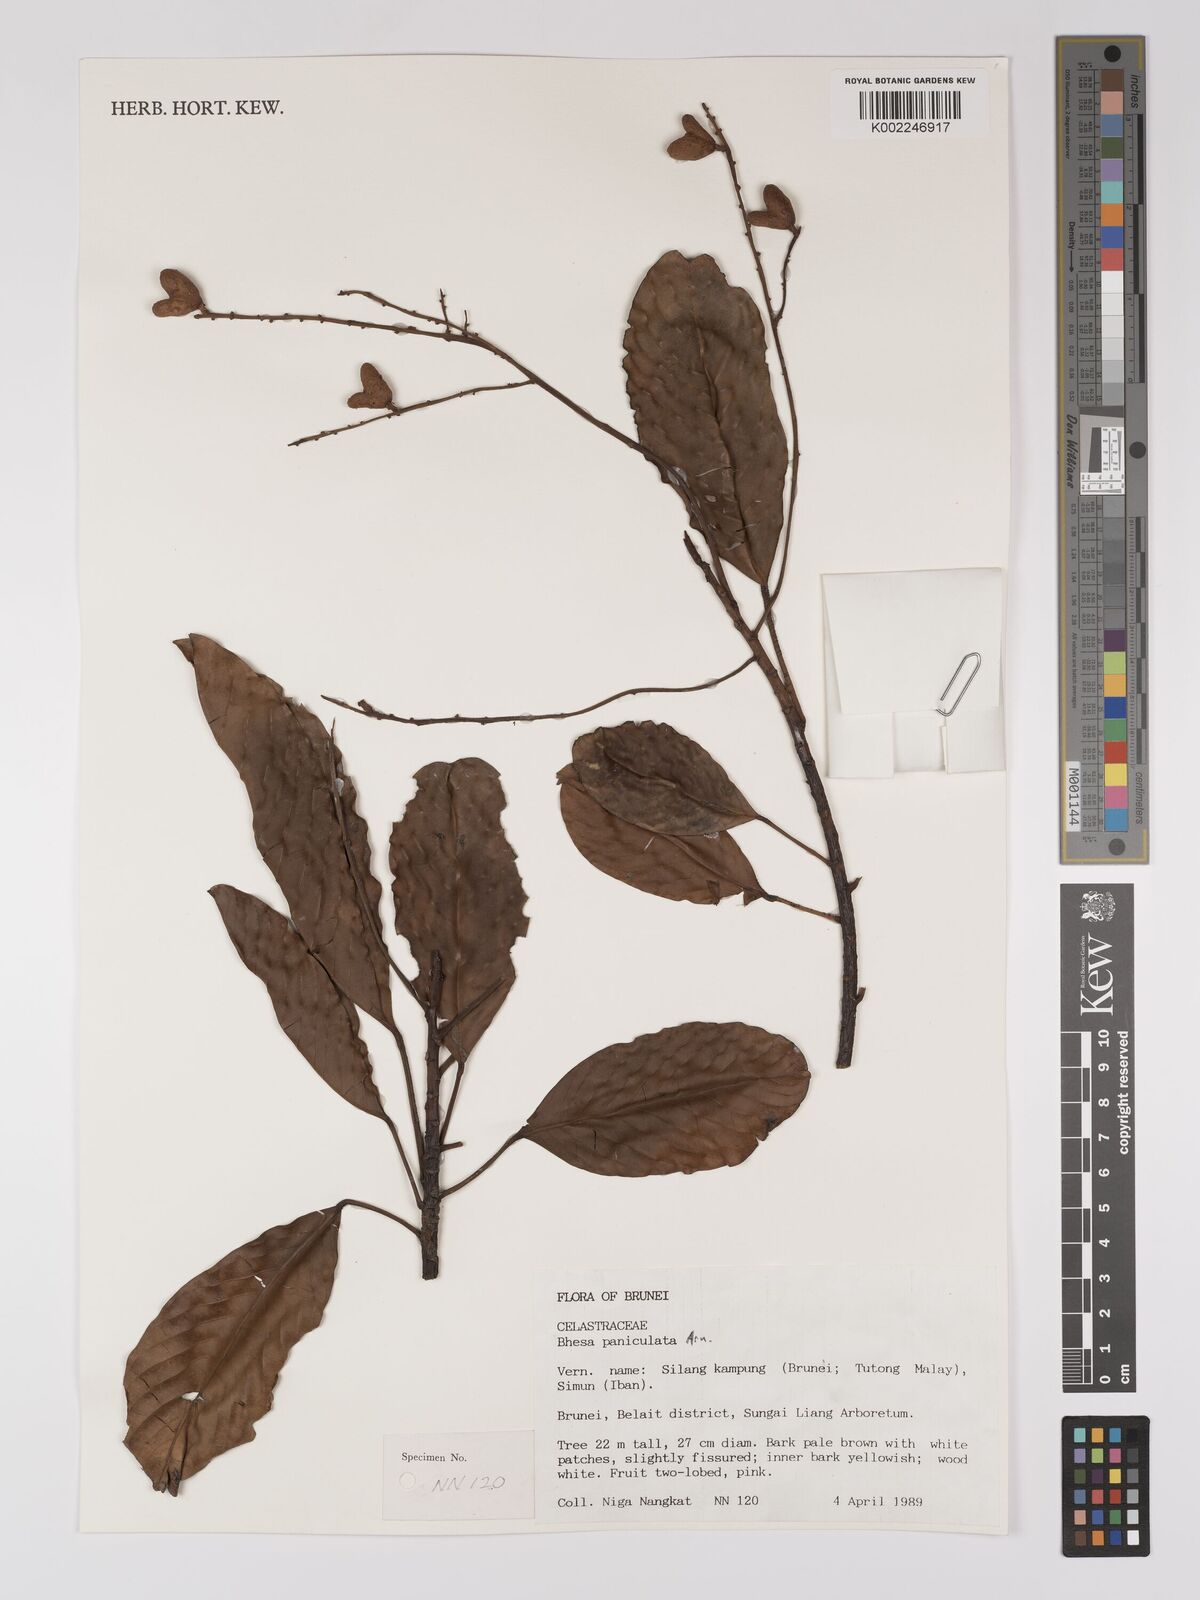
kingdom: Plantae
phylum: Tracheophyta
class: Magnoliopsida
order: Malpighiales
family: Centroplacaceae
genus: Bhesa
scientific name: Bhesa paniculata
